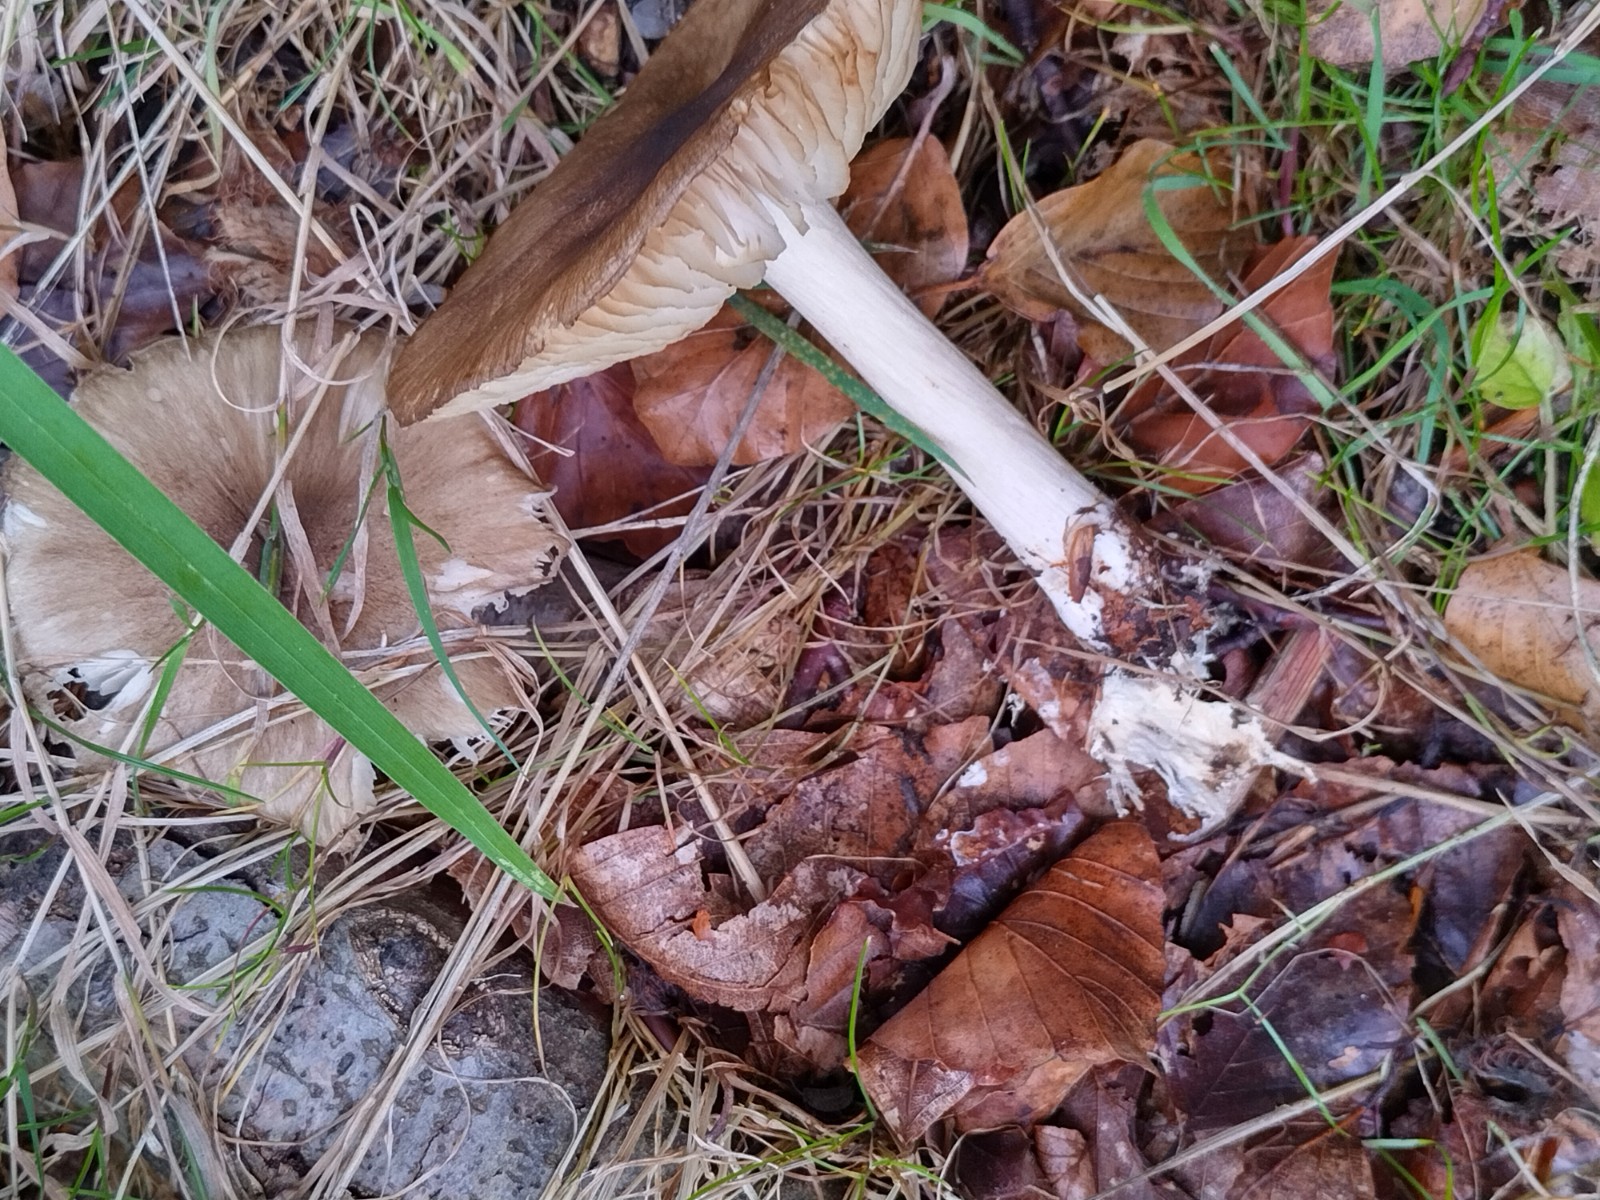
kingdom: Fungi
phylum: Basidiomycota
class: Agaricomycetes
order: Agaricales
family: Tricholomataceae
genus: Megacollybia
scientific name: Megacollybia platyphylla
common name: bredbladet væbnerhat
